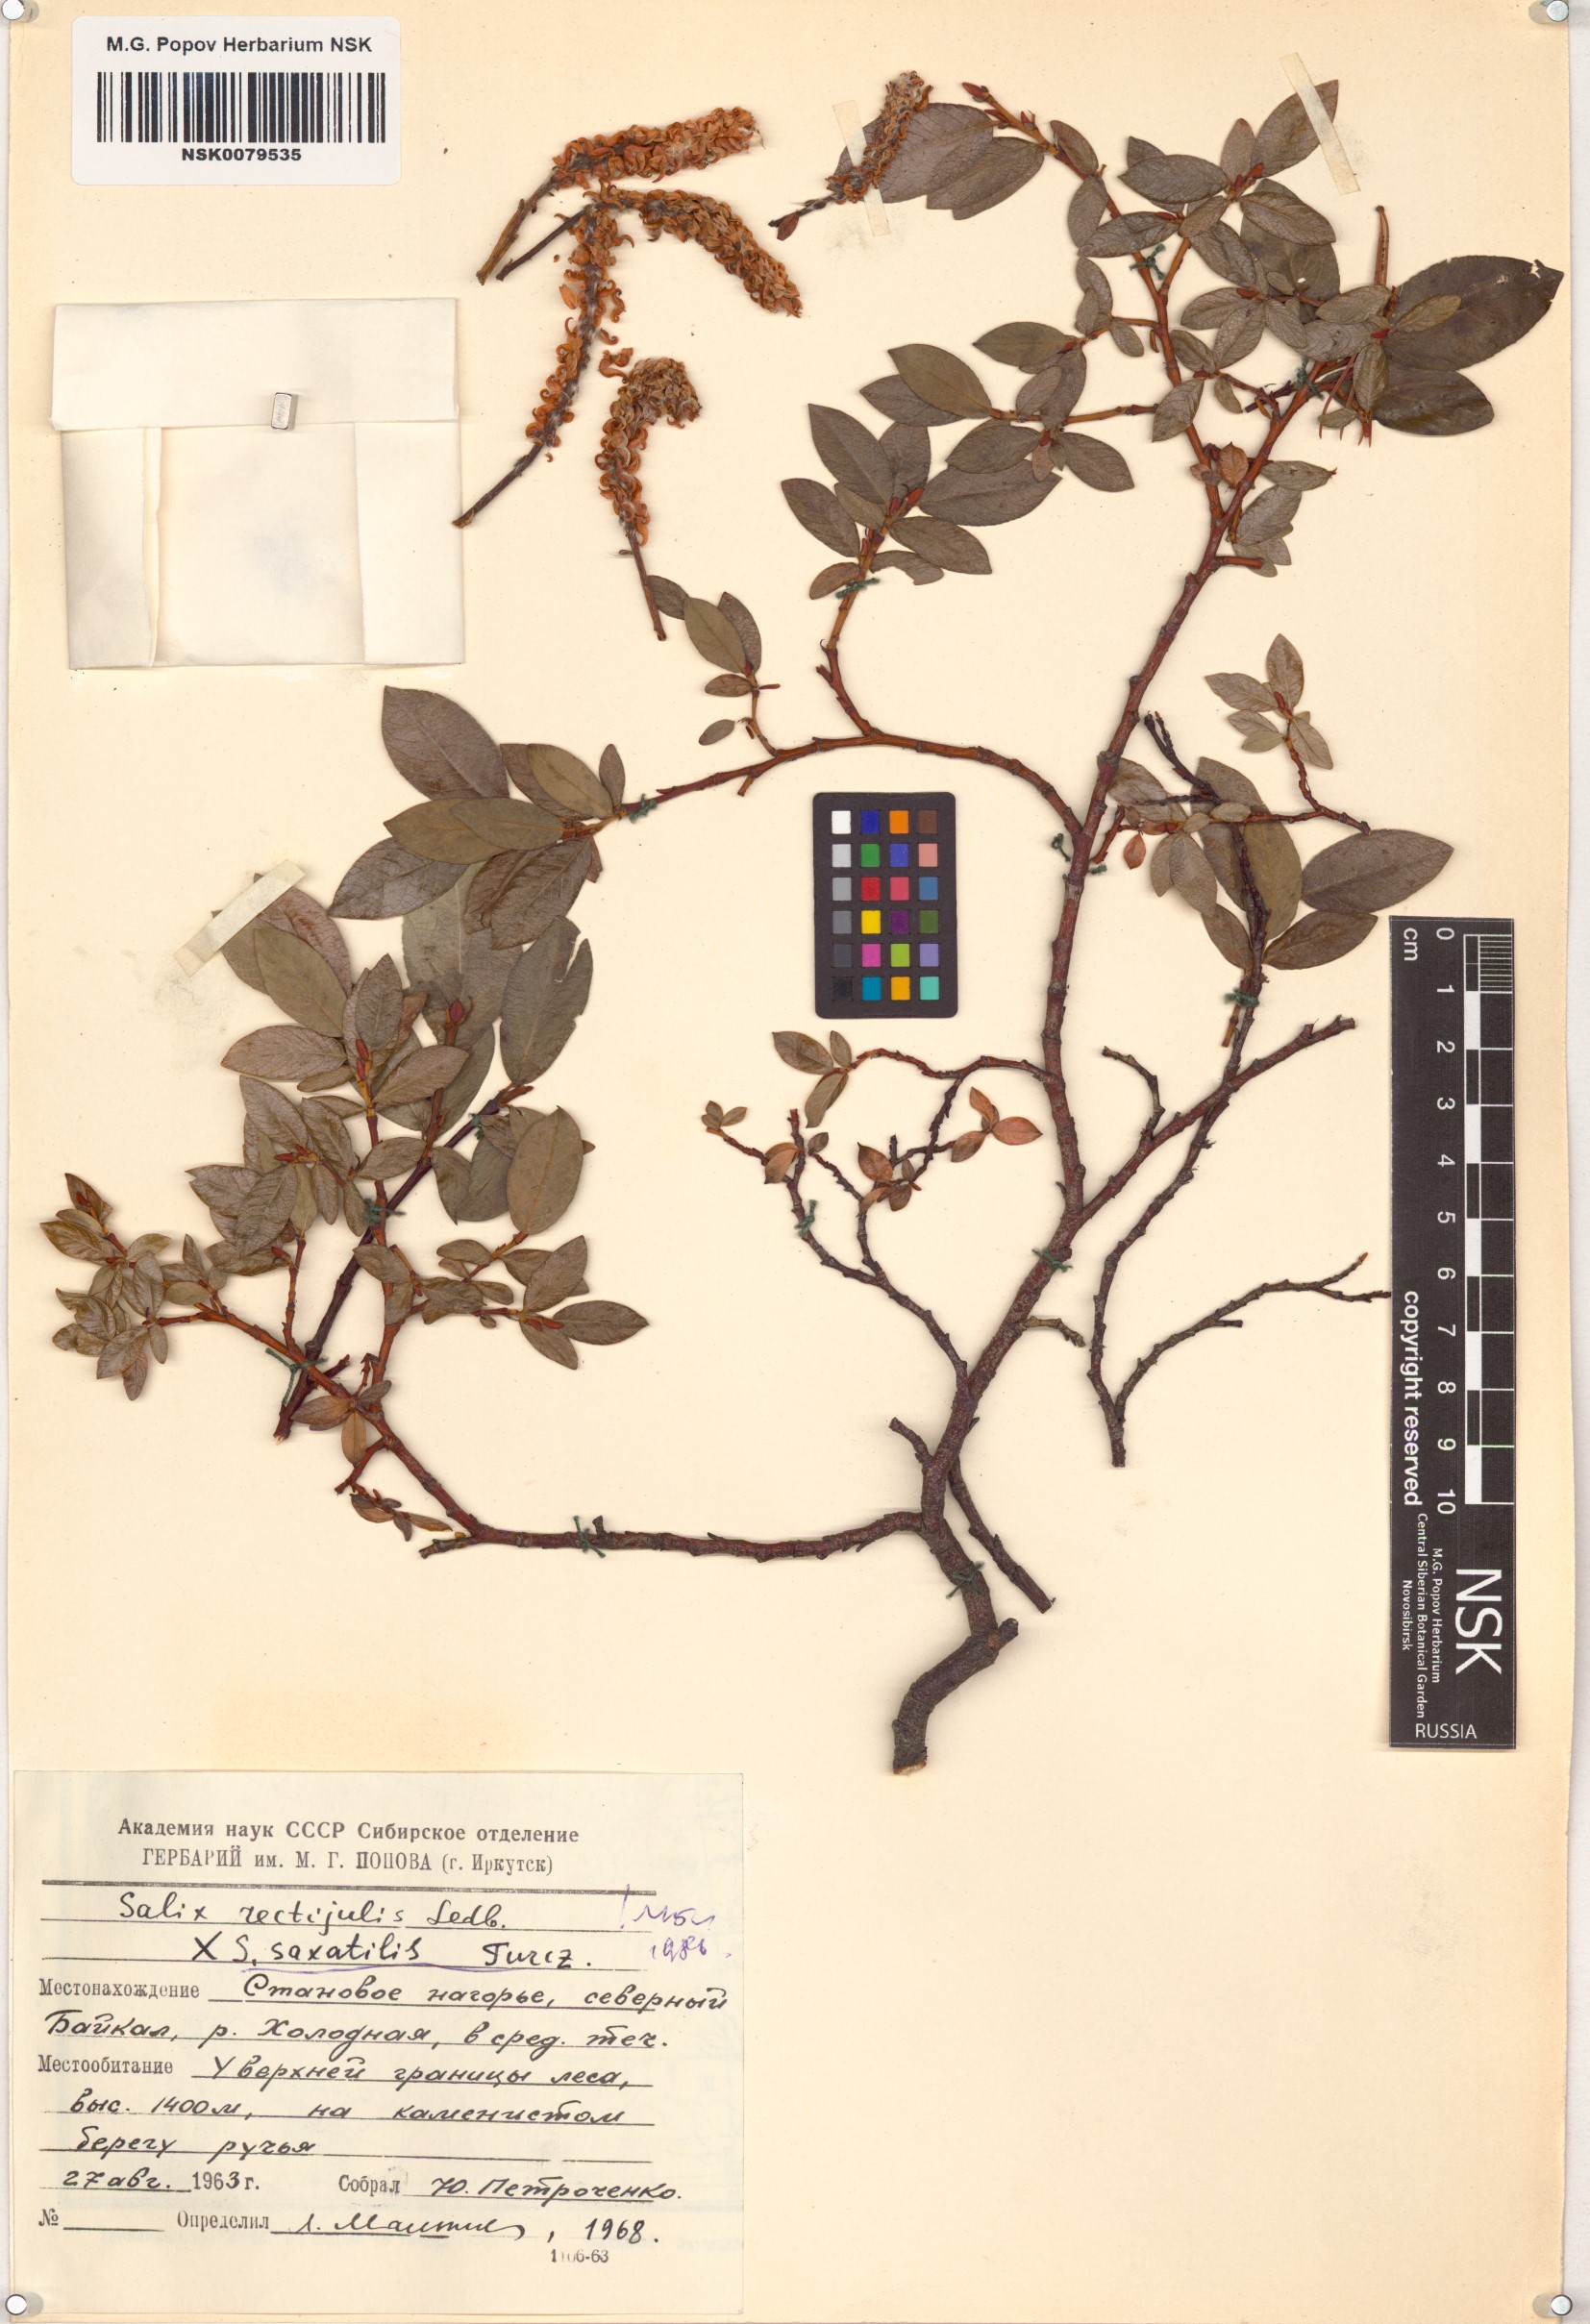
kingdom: Plantae
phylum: Tracheophyta
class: Magnoliopsida
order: Malpighiales
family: Salicaceae
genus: Salix
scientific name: Salix saxatilis
